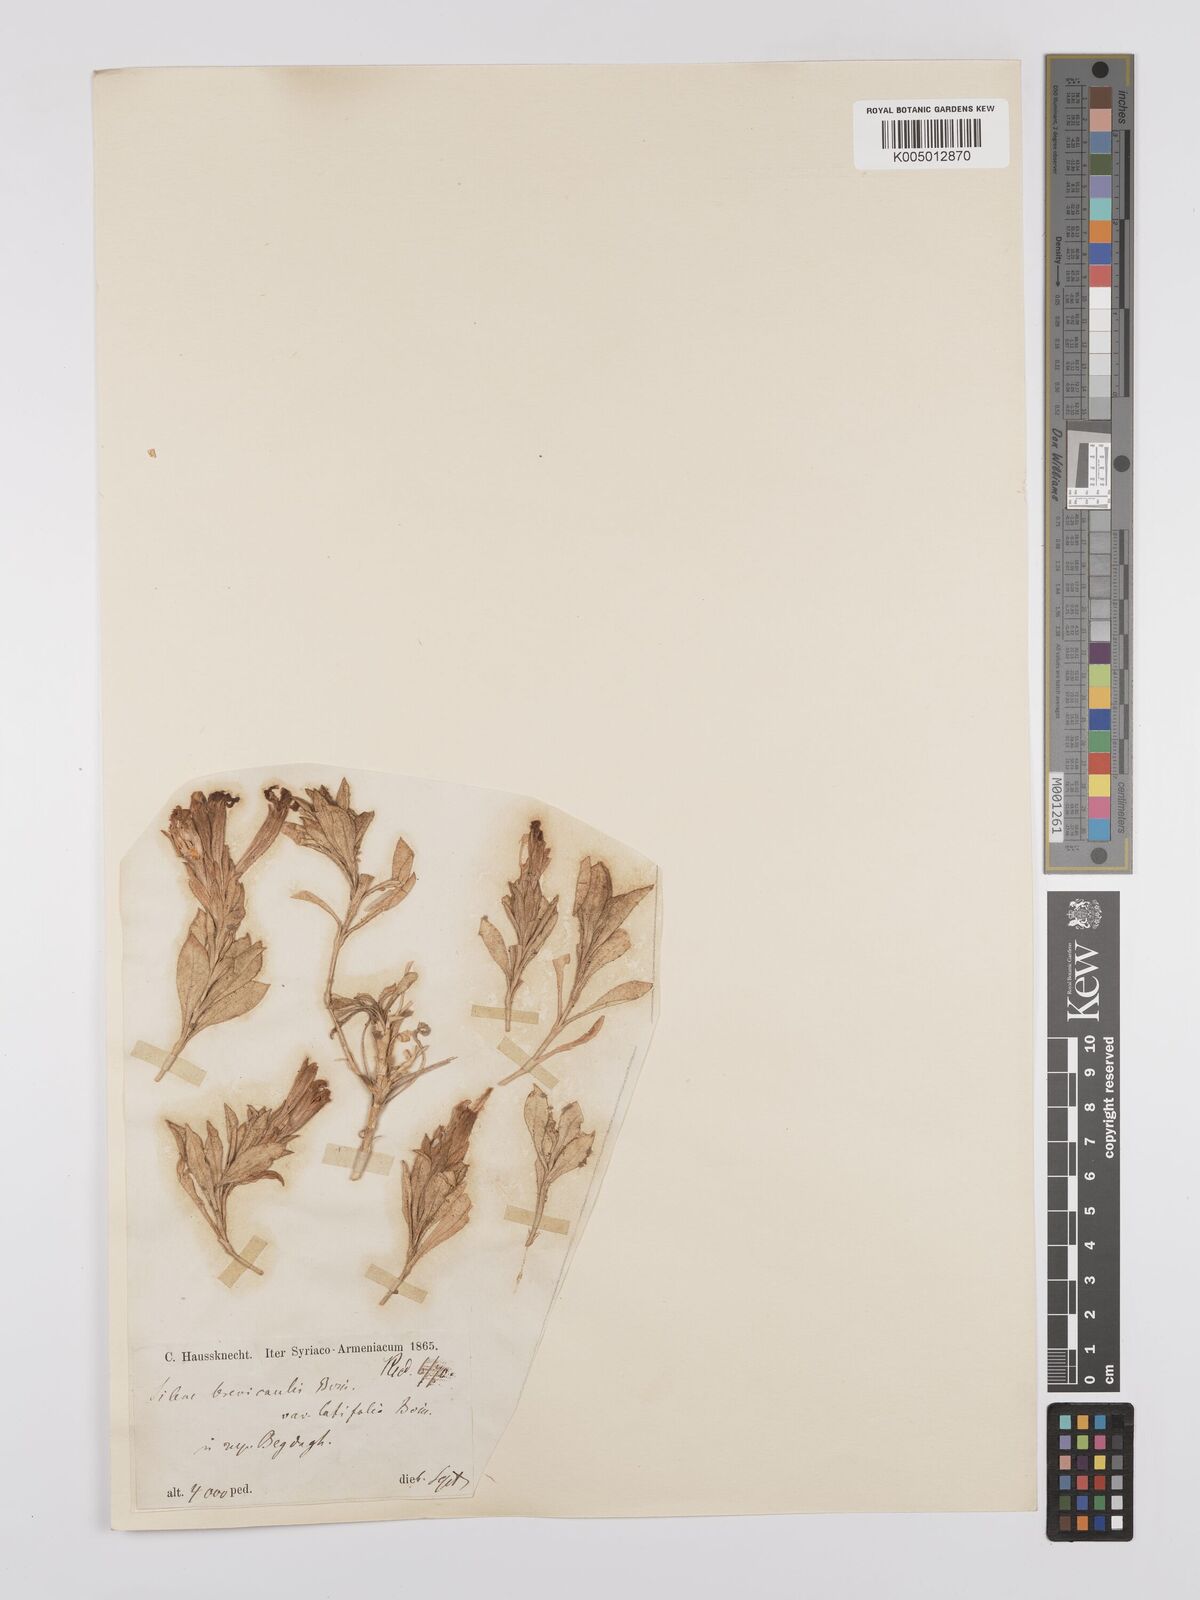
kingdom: Plantae
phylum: Tracheophyta
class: Magnoliopsida
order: Caryophyllales
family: Caryophyllaceae
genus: Silene
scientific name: Silene brevicaulis
